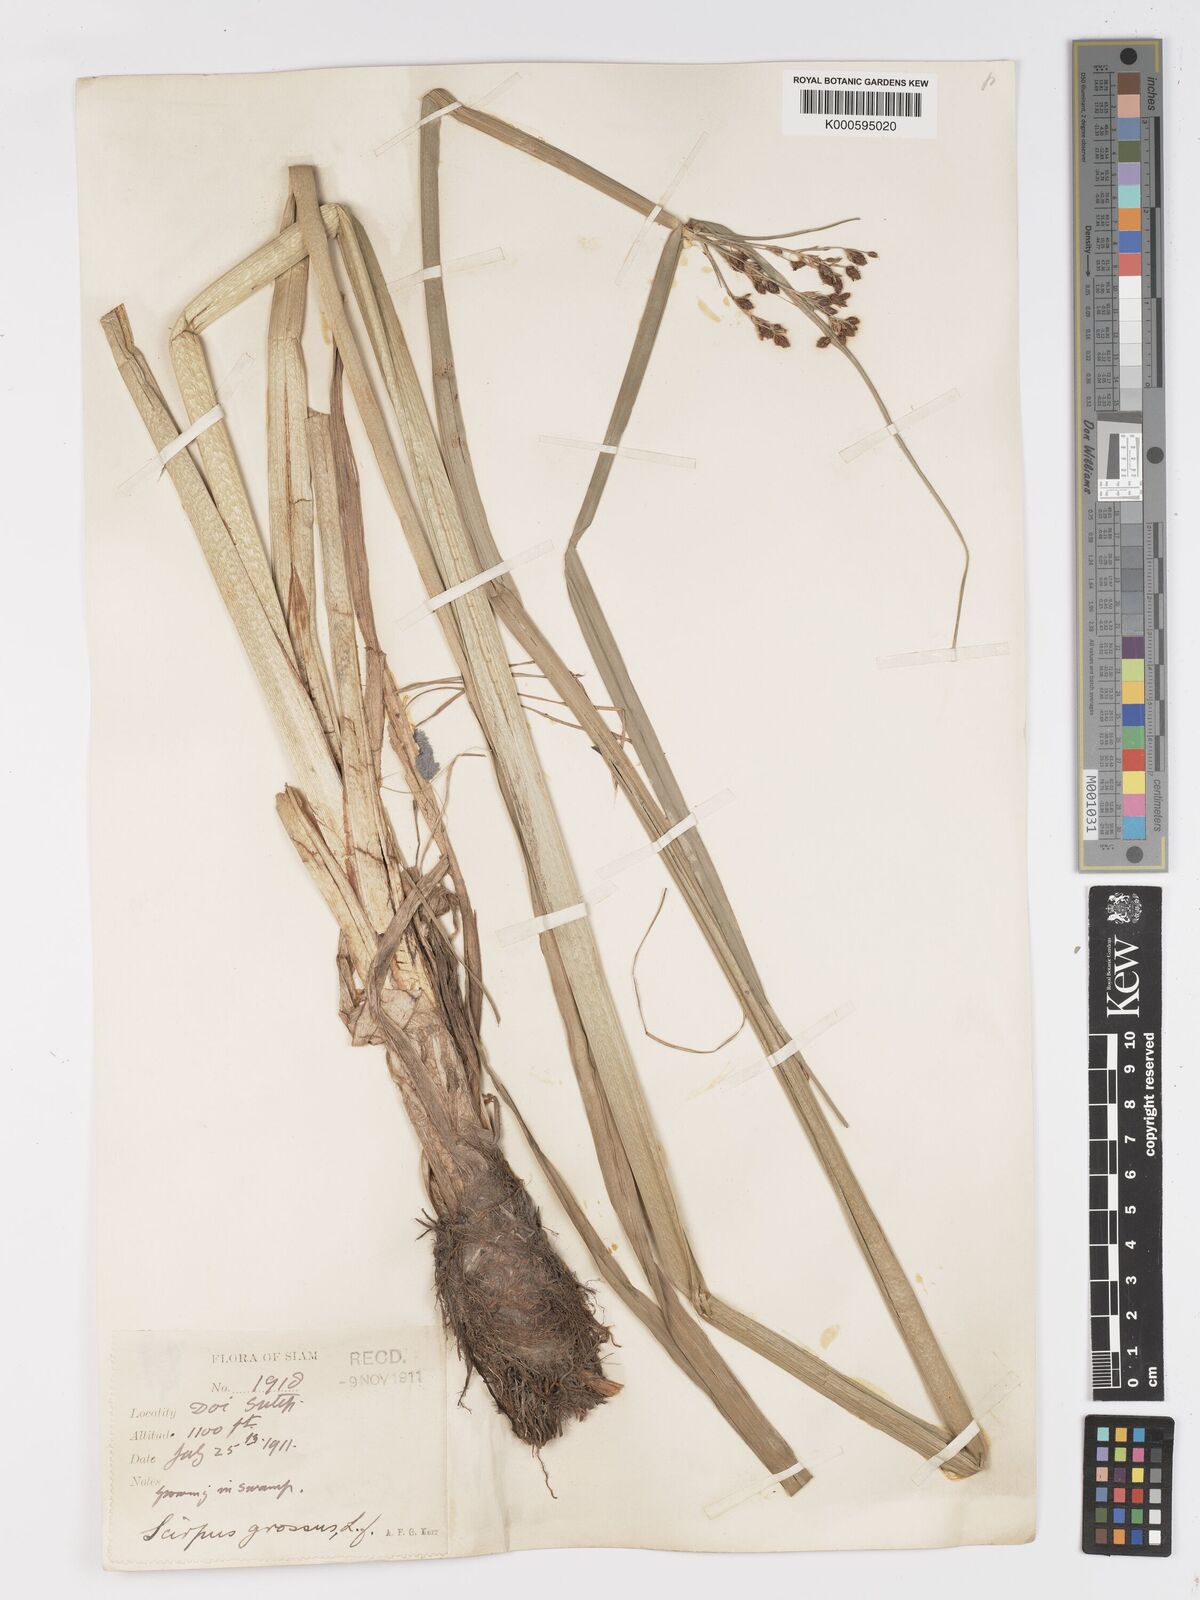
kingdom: Plantae
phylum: Tracheophyta
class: Liliopsida
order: Poales
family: Cyperaceae
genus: Actinoscirpus
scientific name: Actinoscirpus grossus
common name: Giant bur rush
